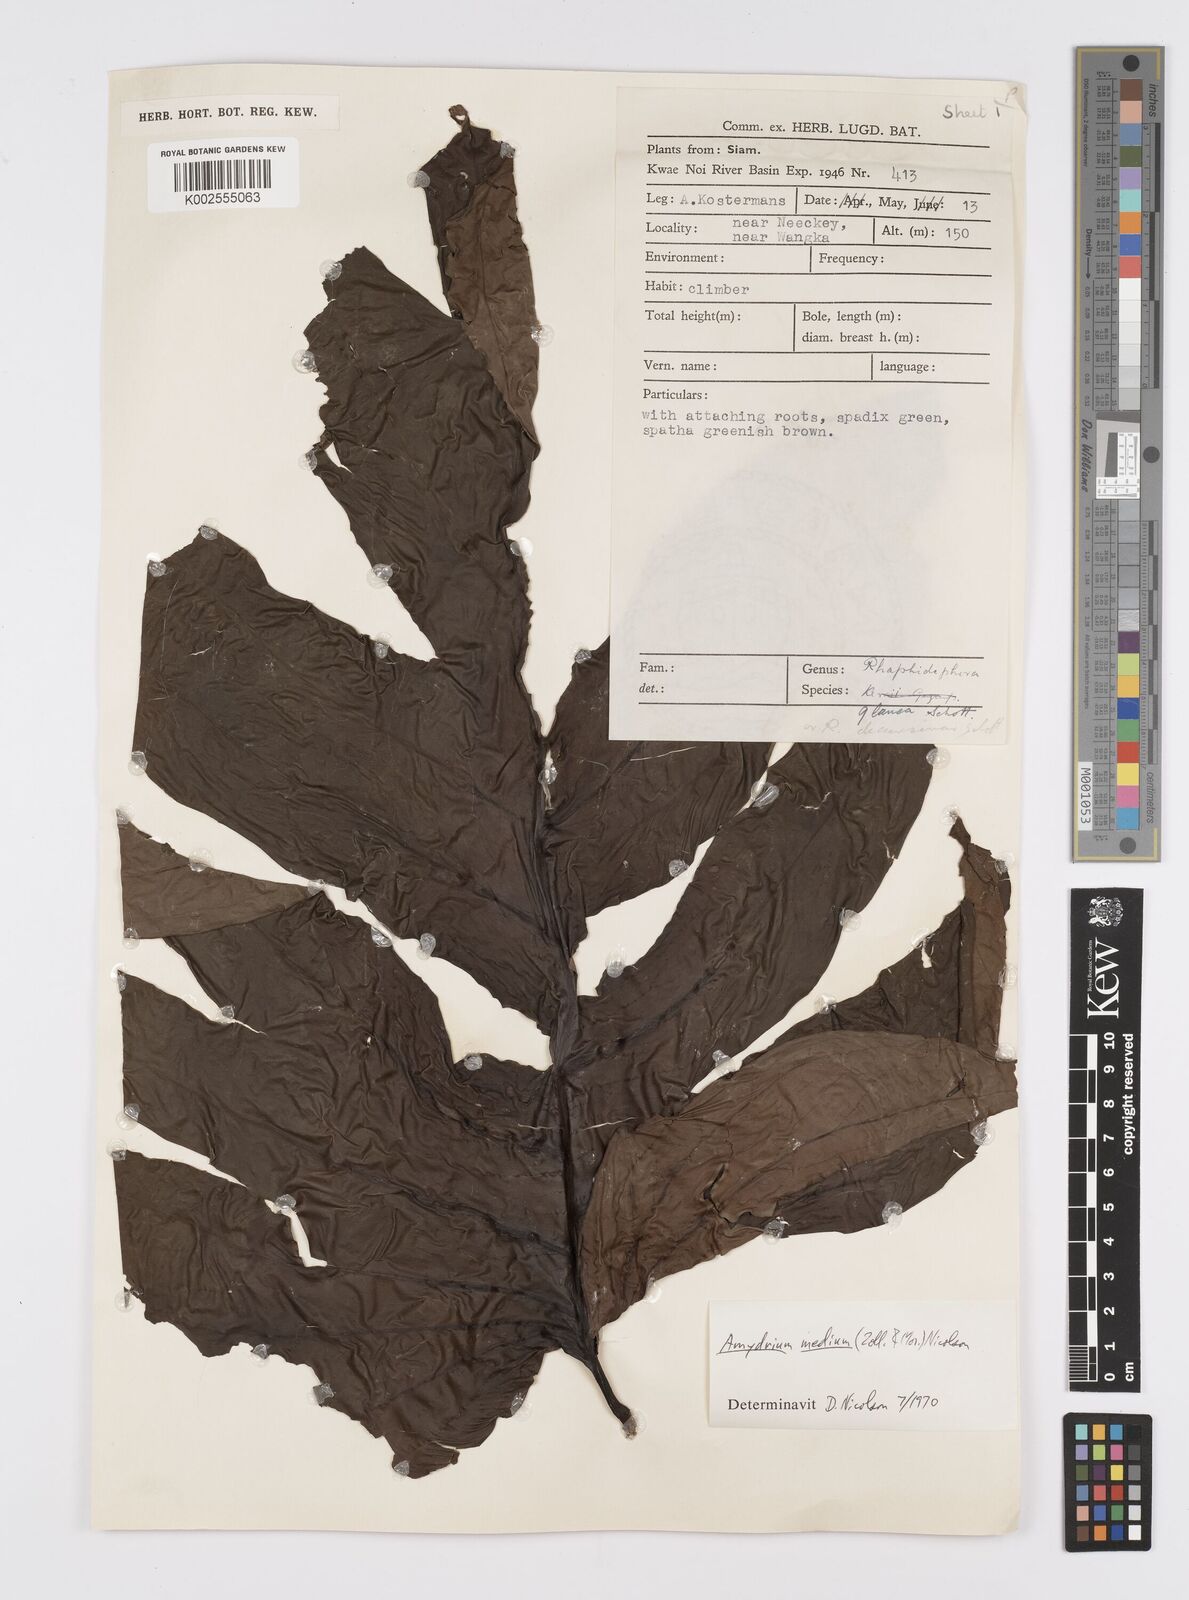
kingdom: Plantae
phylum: Tracheophyta
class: Liliopsida
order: Alismatales
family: Araceae
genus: Amydrium
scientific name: Amydrium medium
